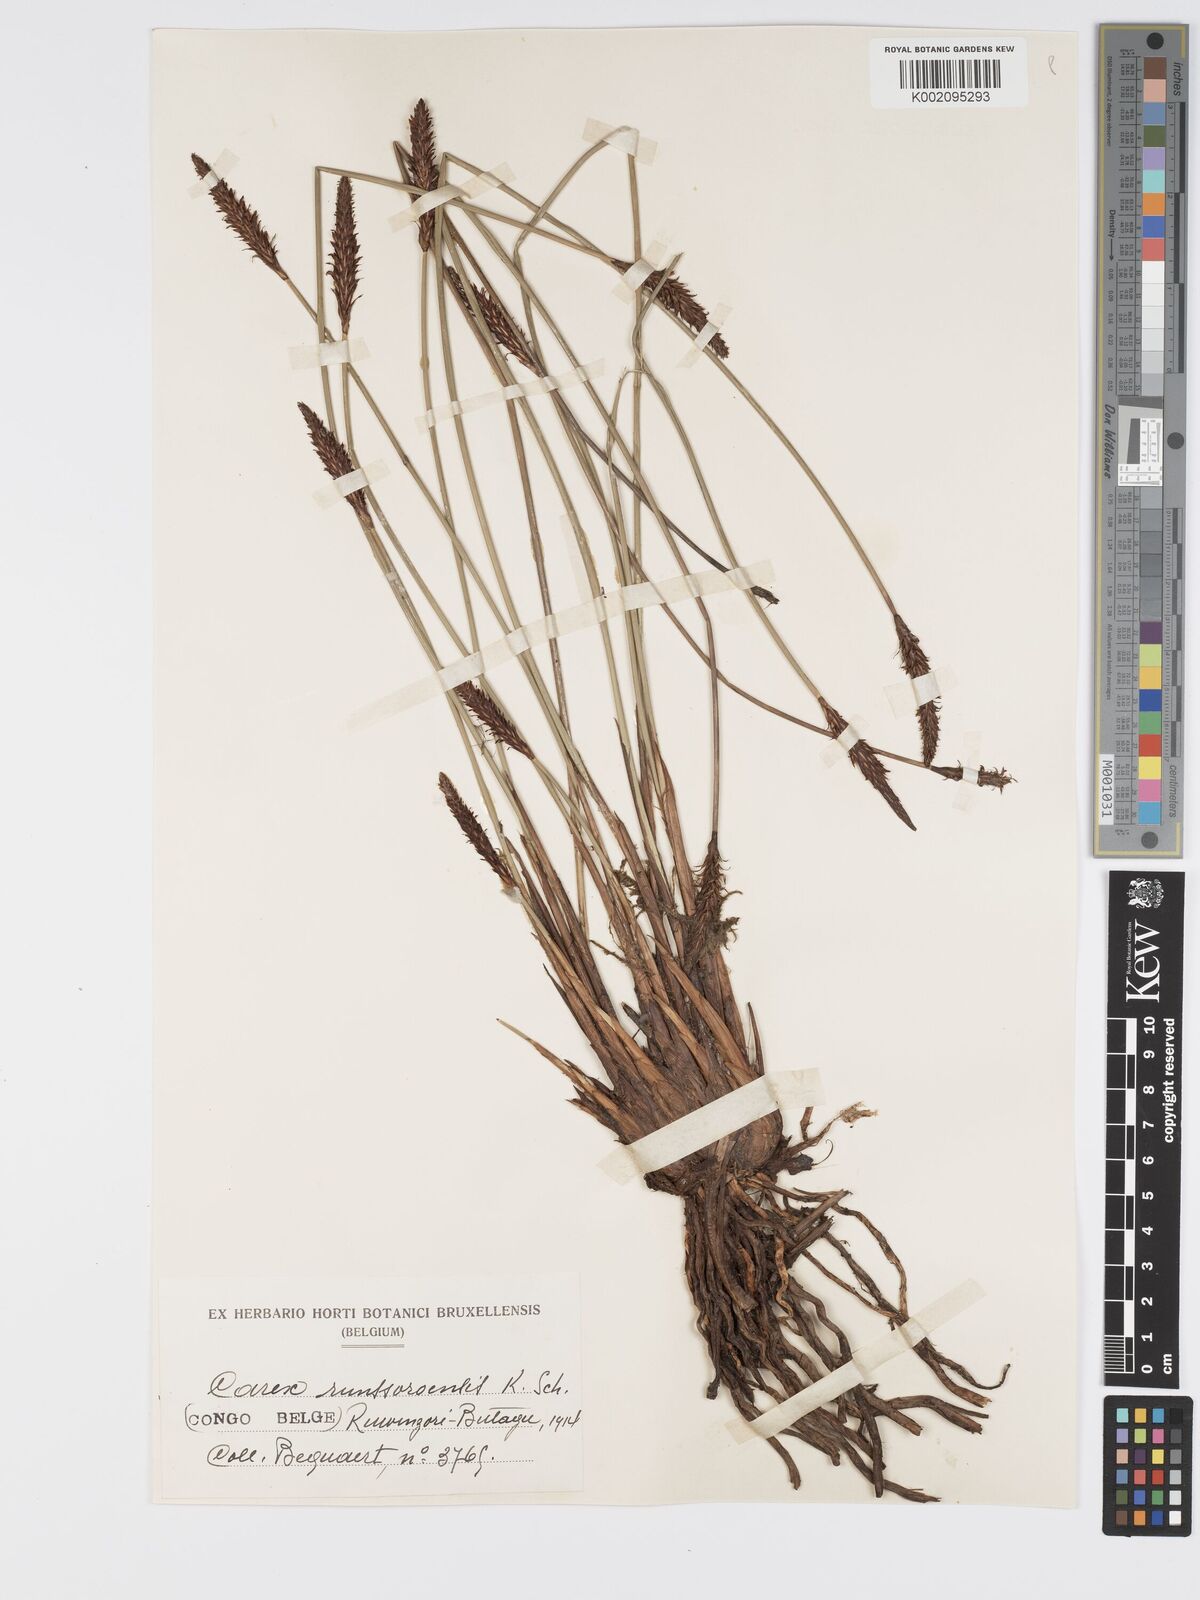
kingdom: Plantae
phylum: Tracheophyta
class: Liliopsida
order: Poales
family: Cyperaceae
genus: Carex
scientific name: Carex runssoroensis
